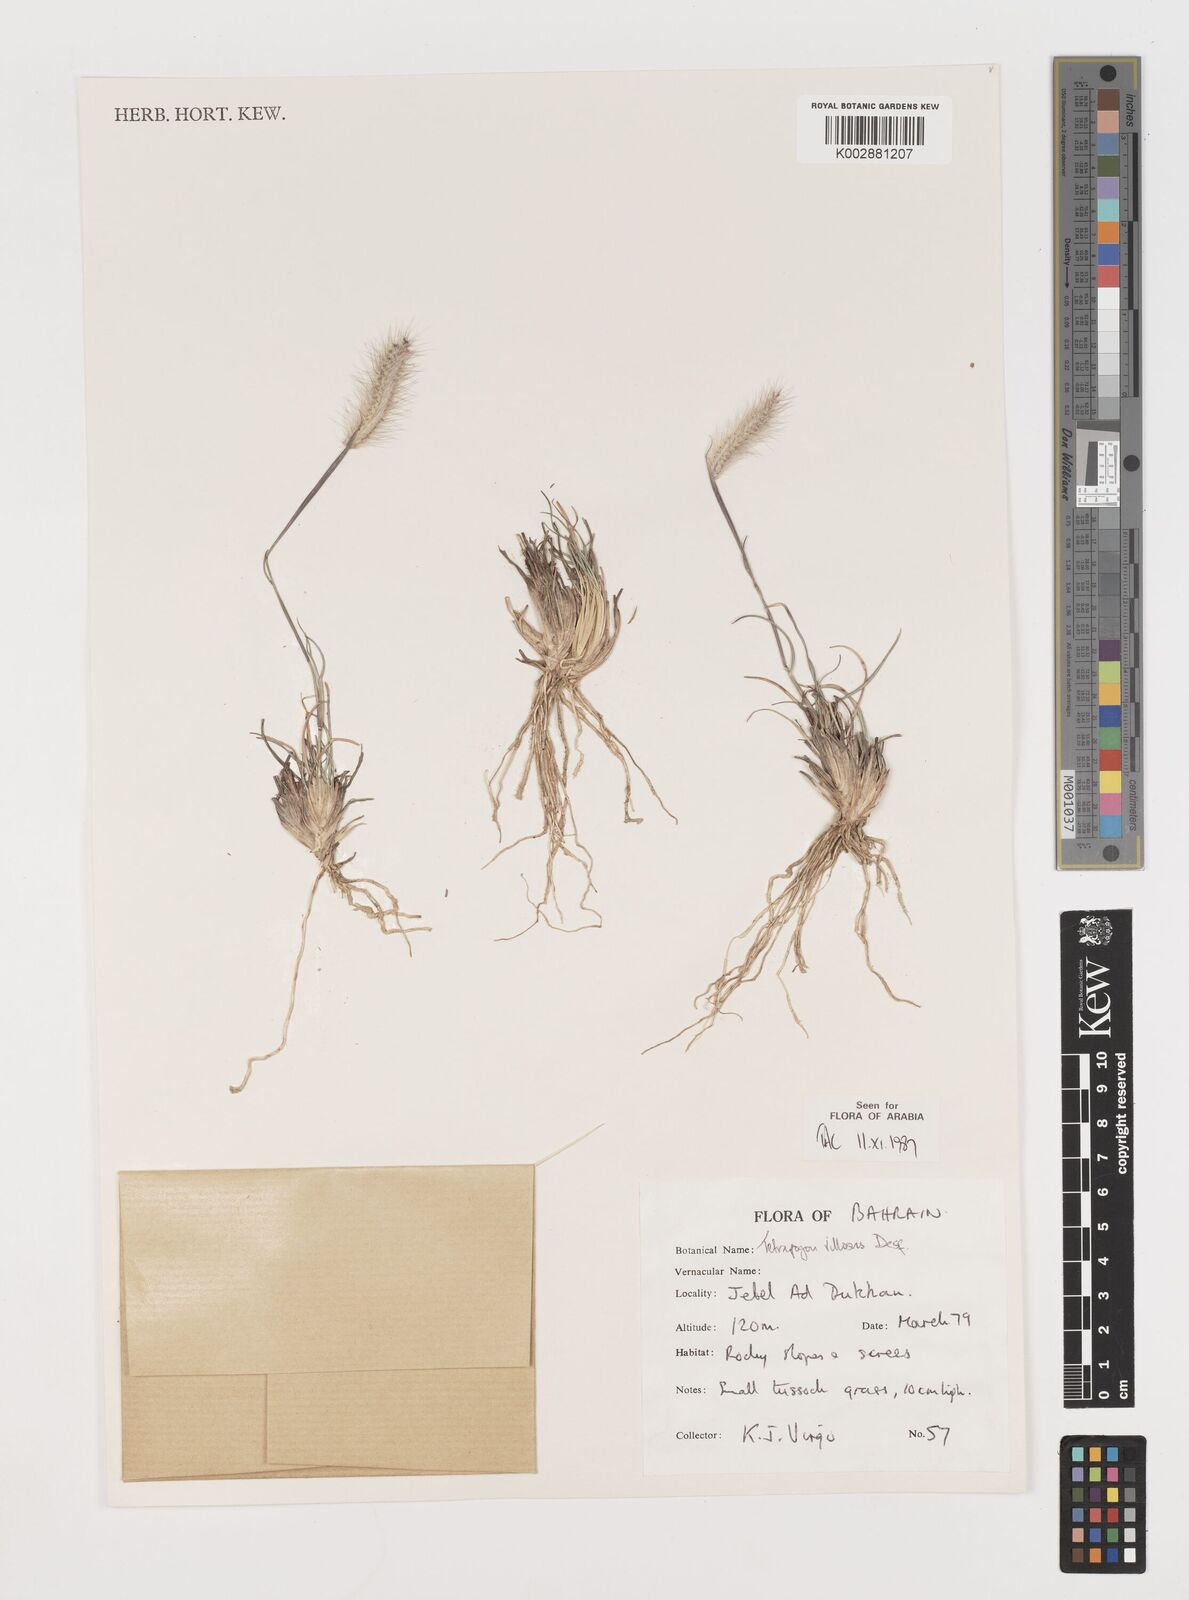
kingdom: Plantae
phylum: Tracheophyta
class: Liliopsida
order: Poales
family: Poaceae
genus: Tetrapogon
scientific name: Tetrapogon villosus
